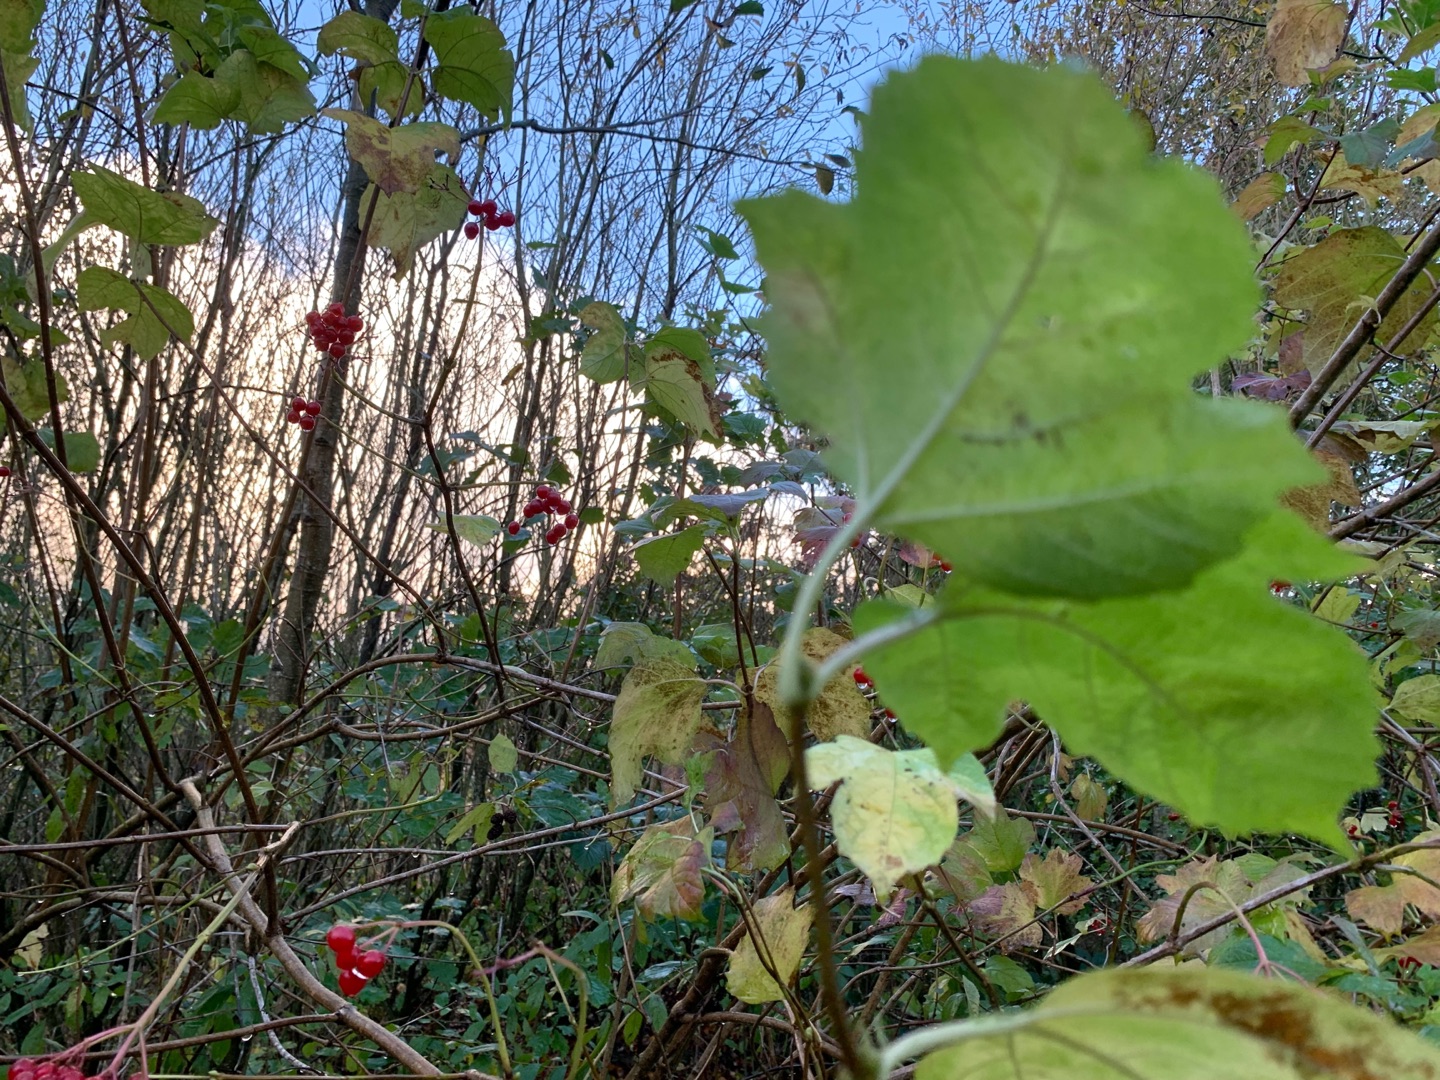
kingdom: Plantae
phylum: Tracheophyta
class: Magnoliopsida
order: Dipsacales
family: Viburnaceae
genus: Viburnum
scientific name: Viburnum opulus
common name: Kvalkved
